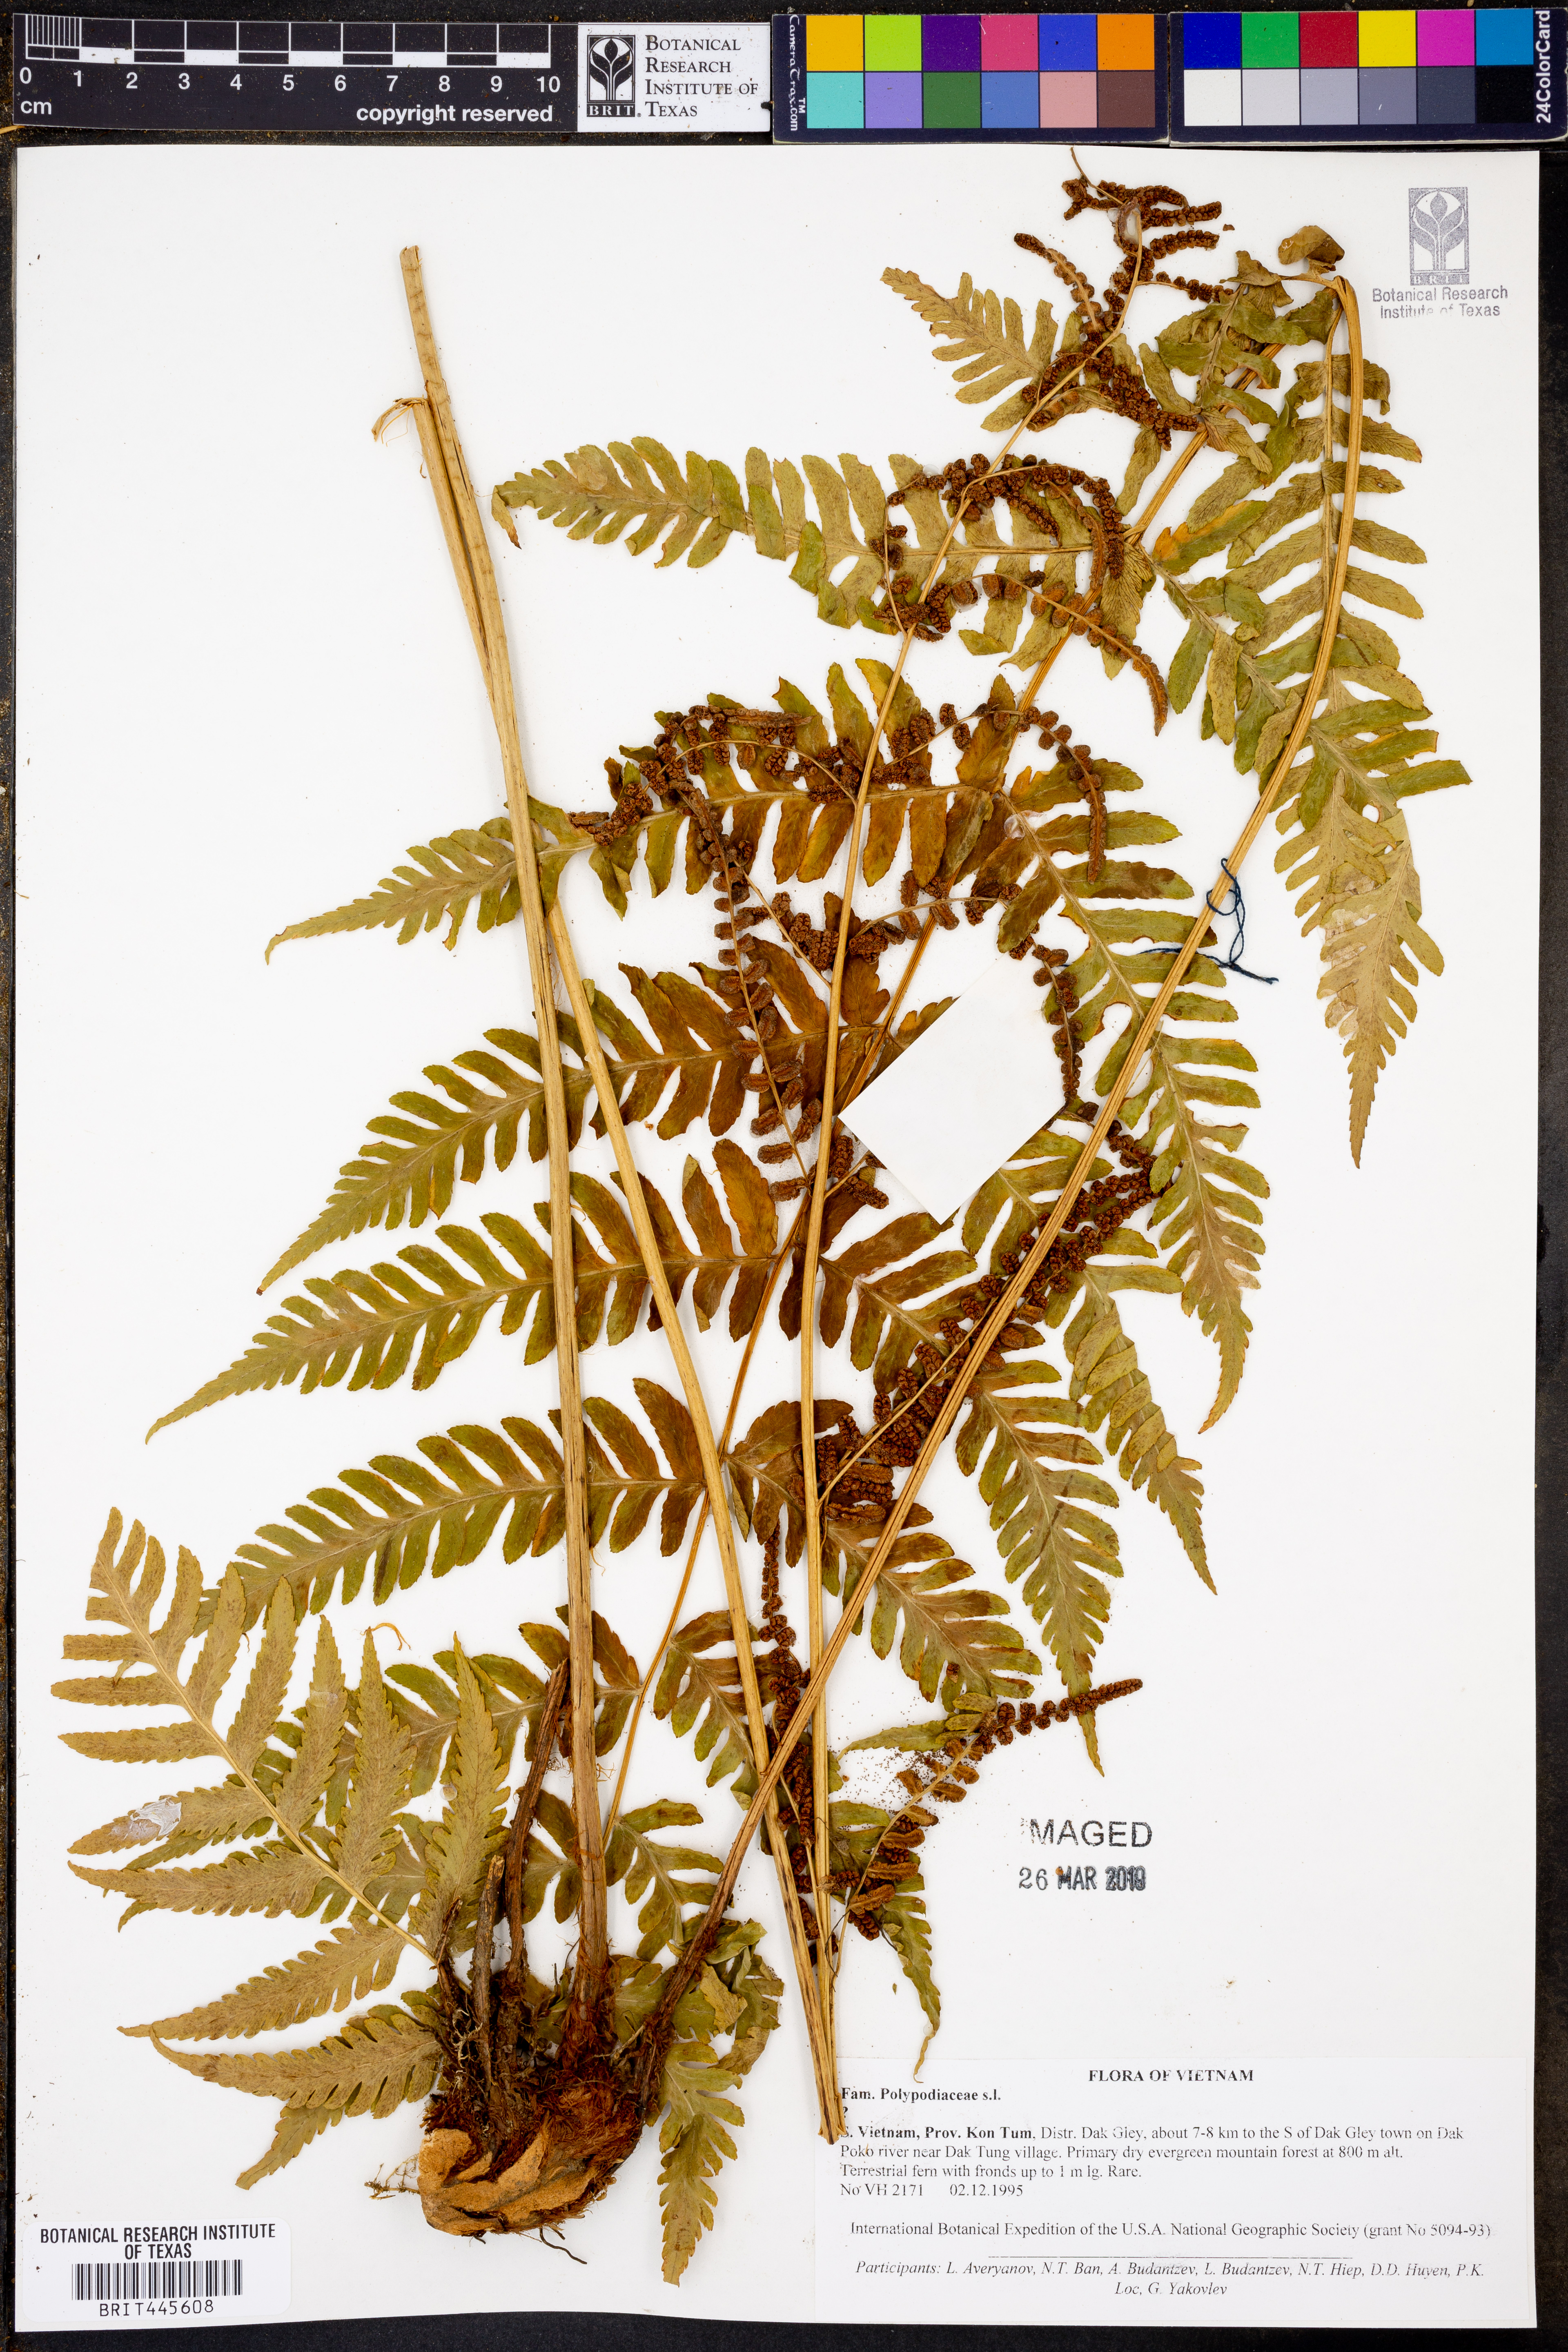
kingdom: Plantae
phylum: Tracheophyta
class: Polypodiopsida
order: Polypodiales
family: Polypodiaceae
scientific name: Polypodiaceae
